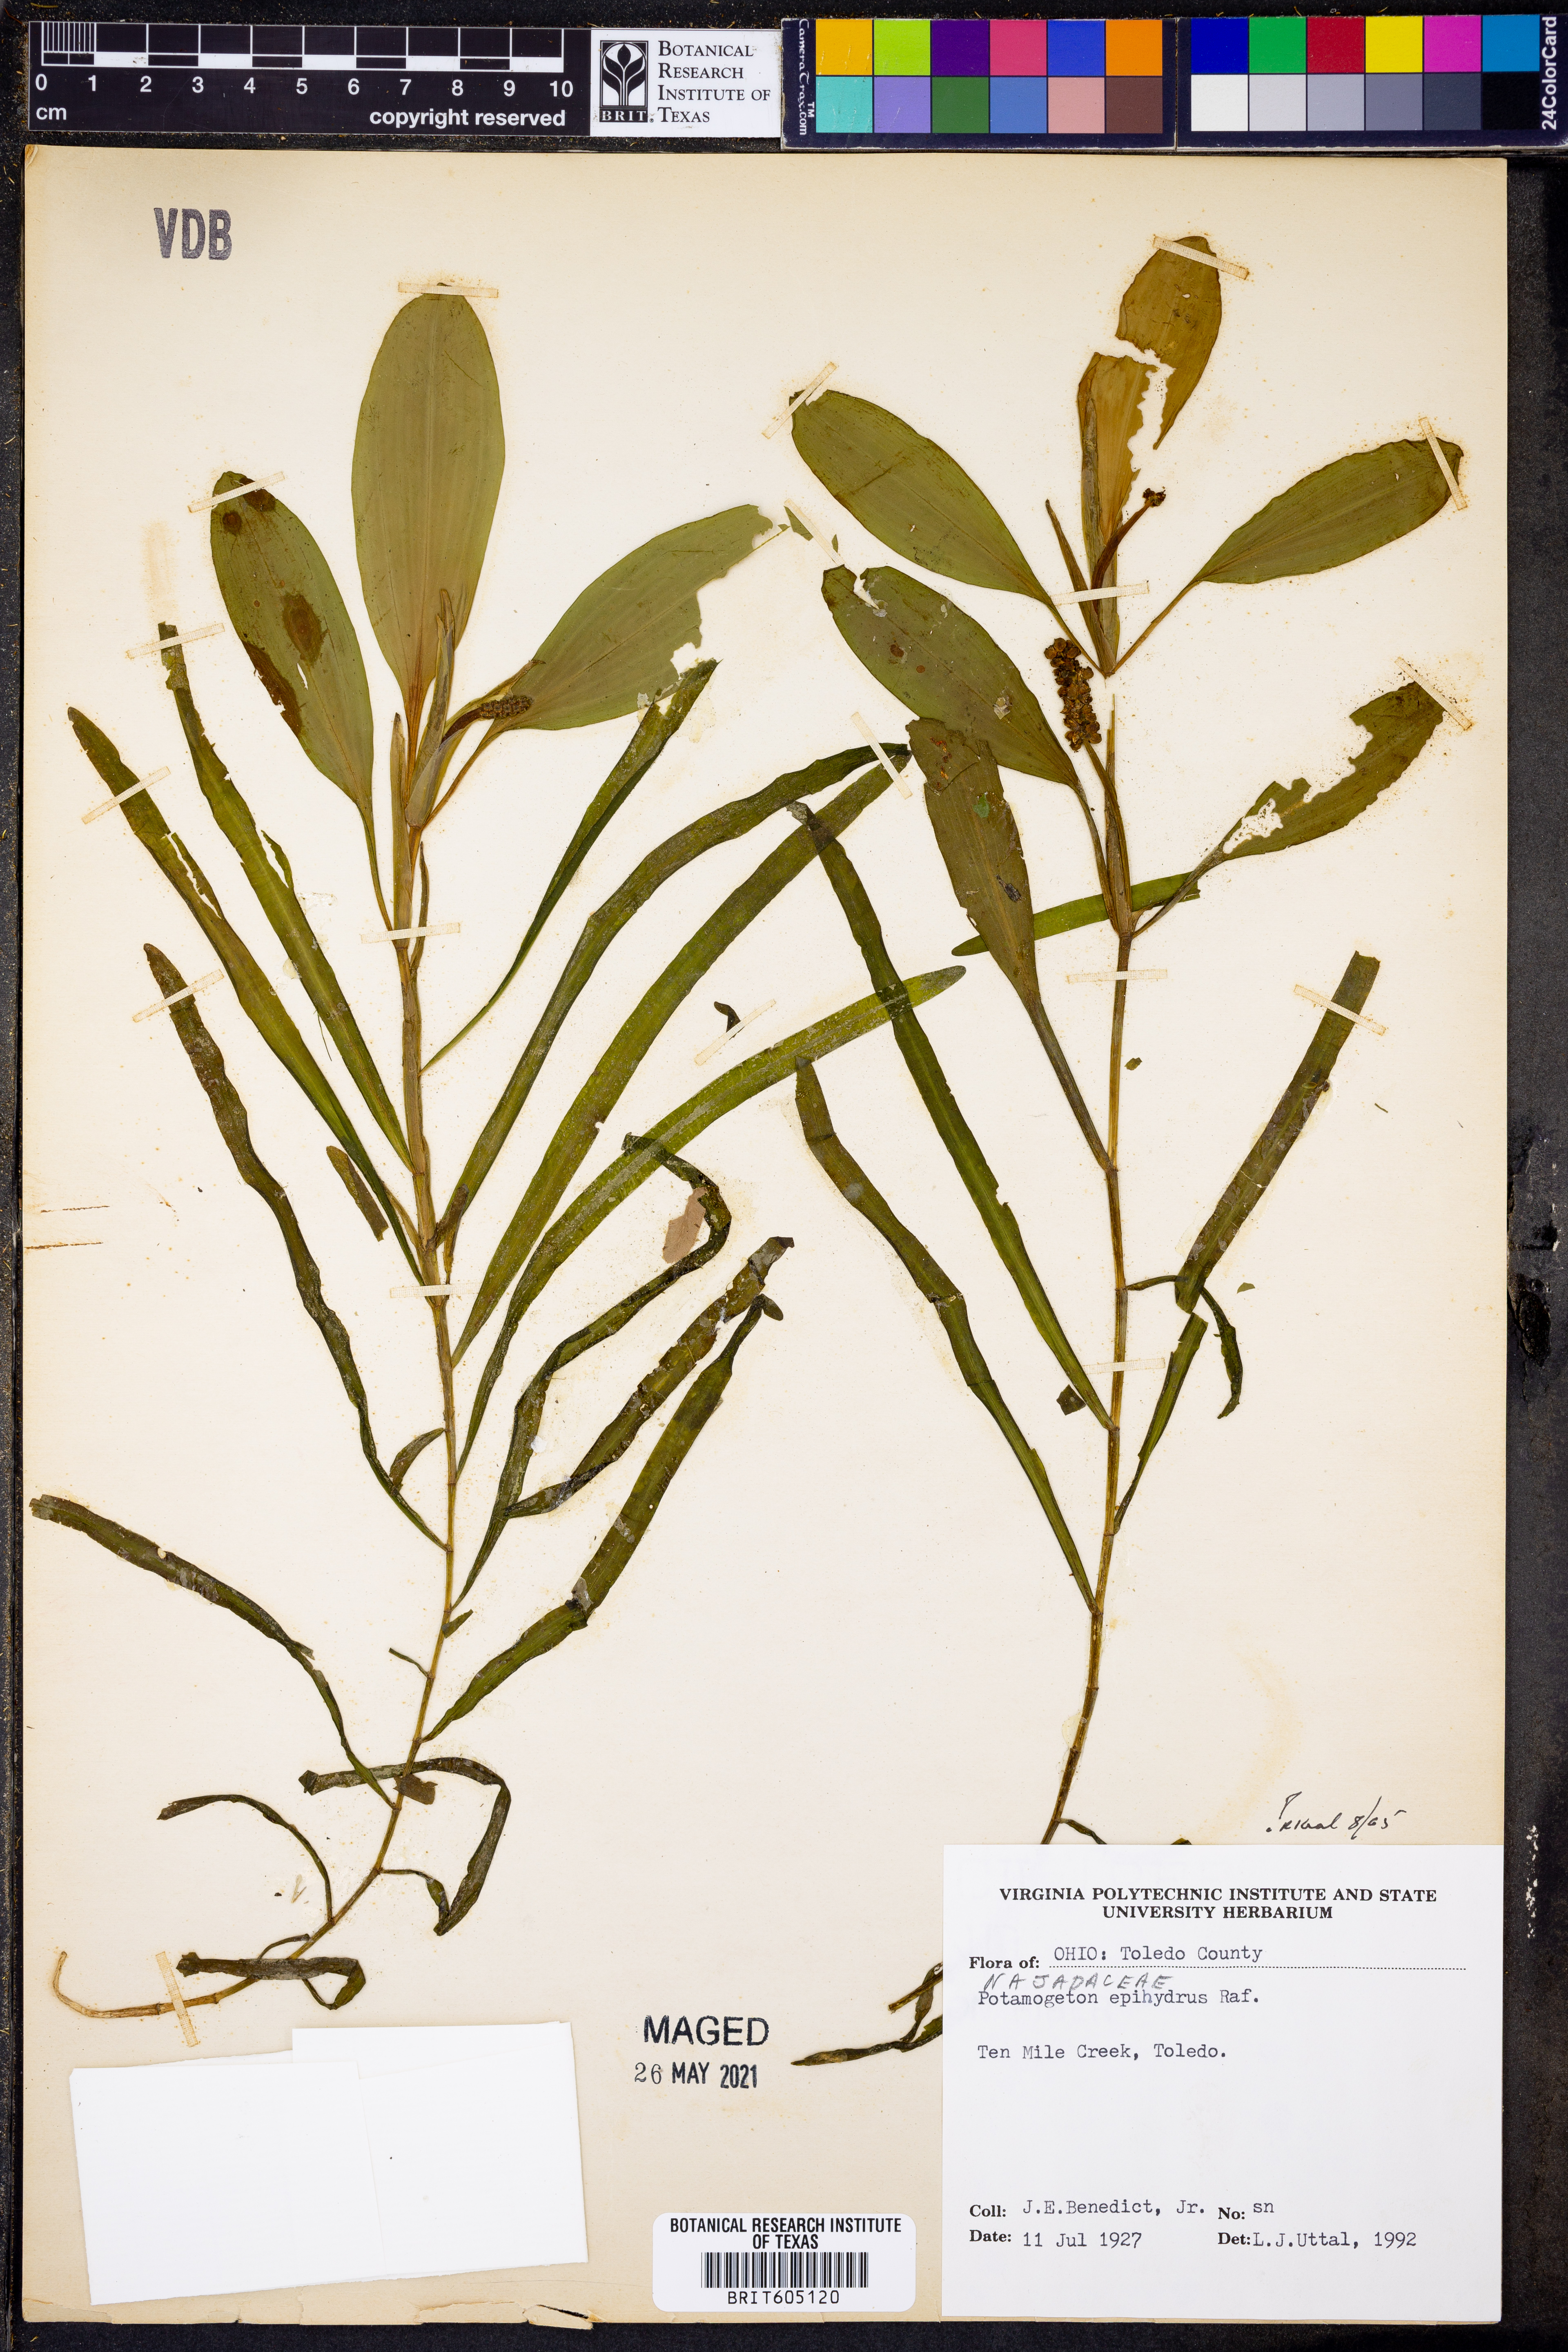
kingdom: Plantae
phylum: Tracheophyta
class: Liliopsida
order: Alismatales
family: Potamogetonaceae
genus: Potamogeton
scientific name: Potamogeton epihydrus
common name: American pondweed
